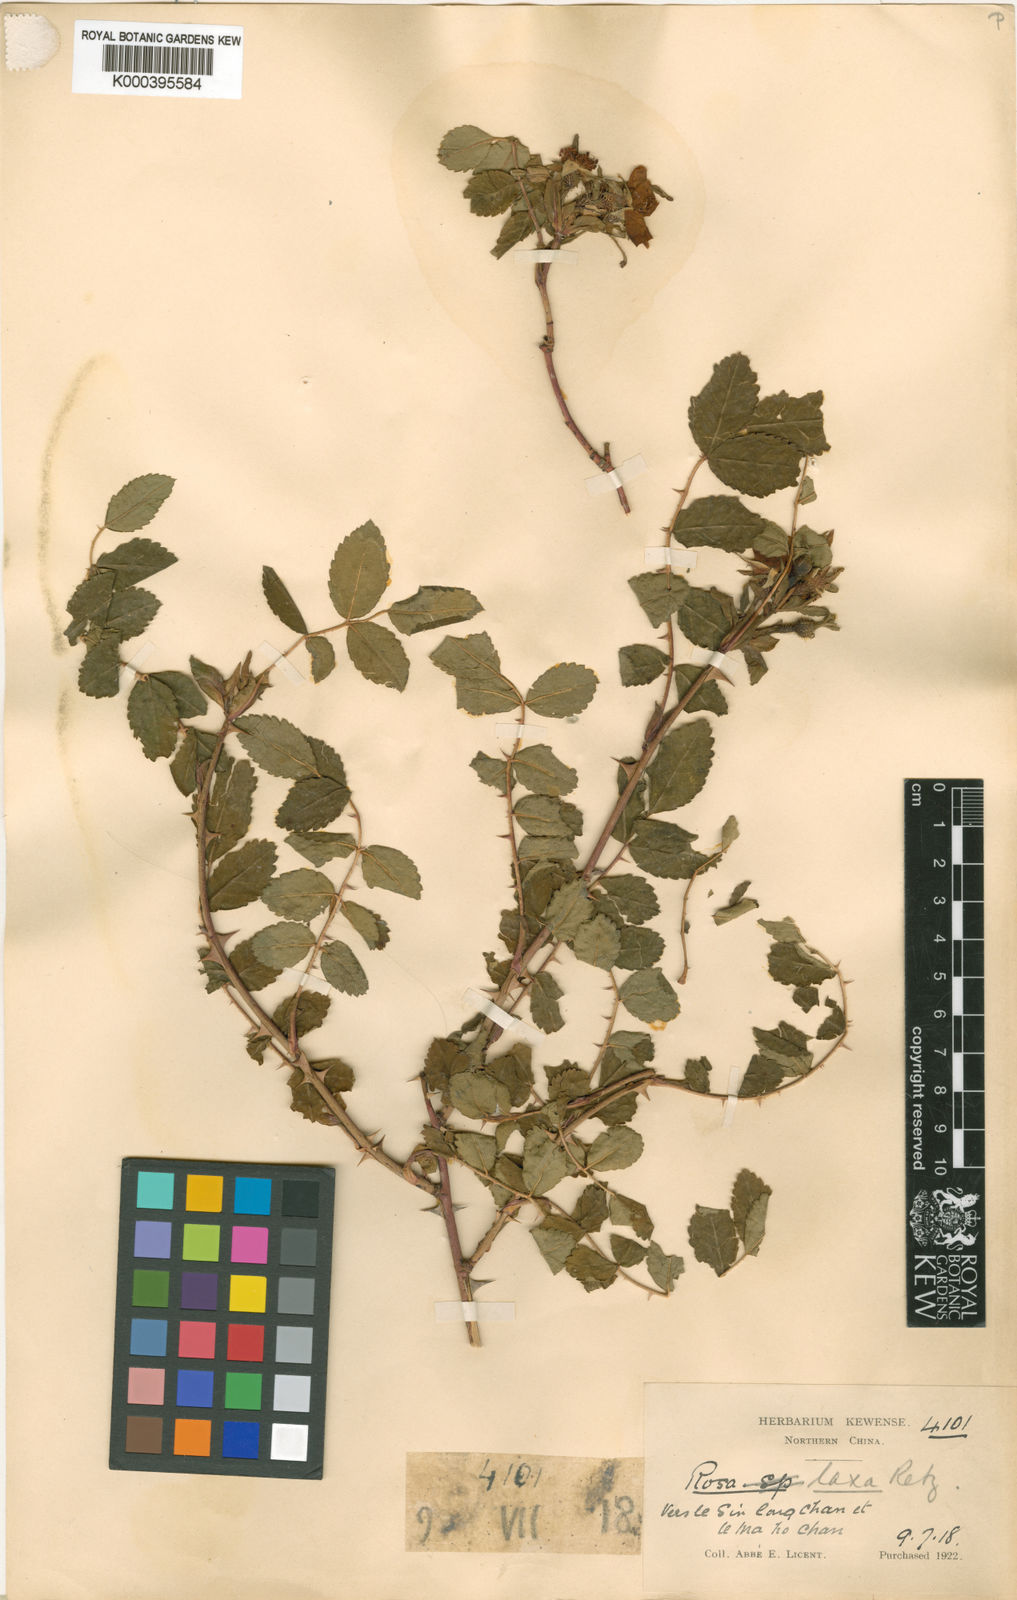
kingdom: Plantae
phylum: Tracheophyta
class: Magnoliopsida
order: Rosales
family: Rosaceae
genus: Rosa
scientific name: Rosa laxa
